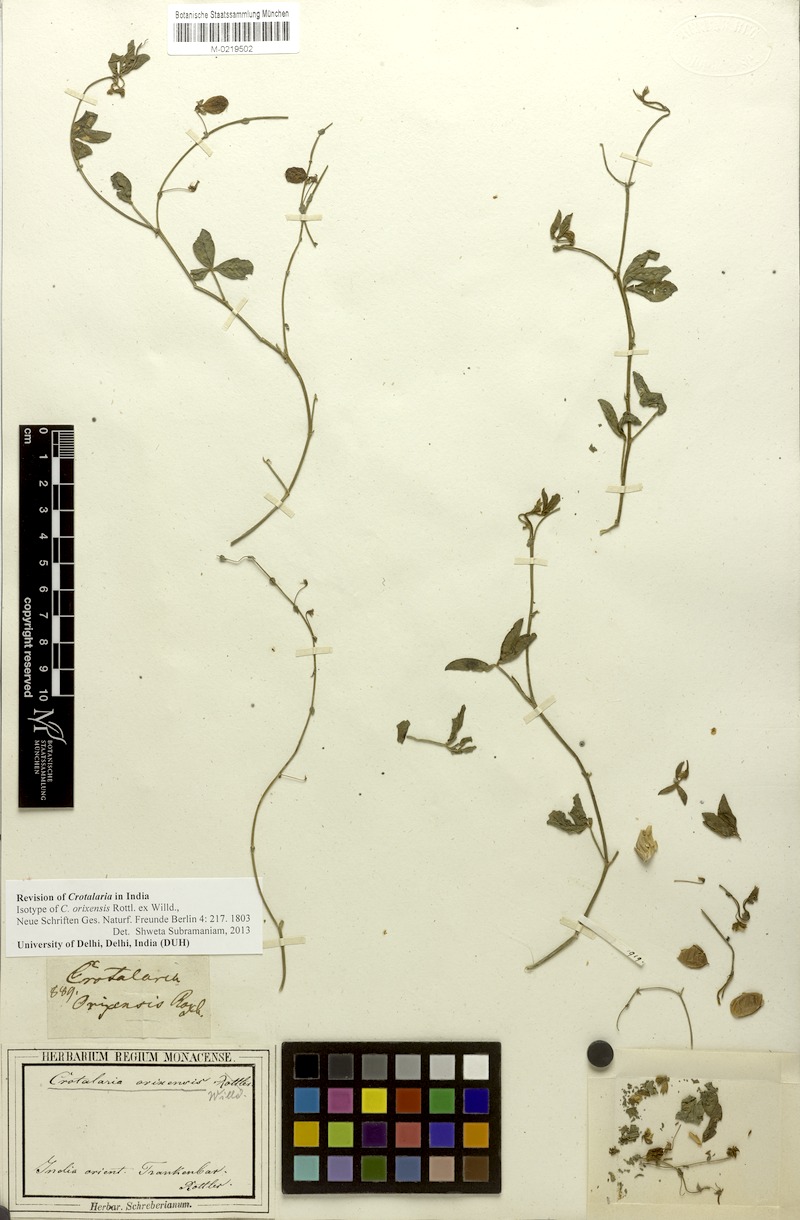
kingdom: Plantae
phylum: Tracheophyta
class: Magnoliopsida
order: Fabales
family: Fabaceae
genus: Crotalaria
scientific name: Crotalaria orixensis
